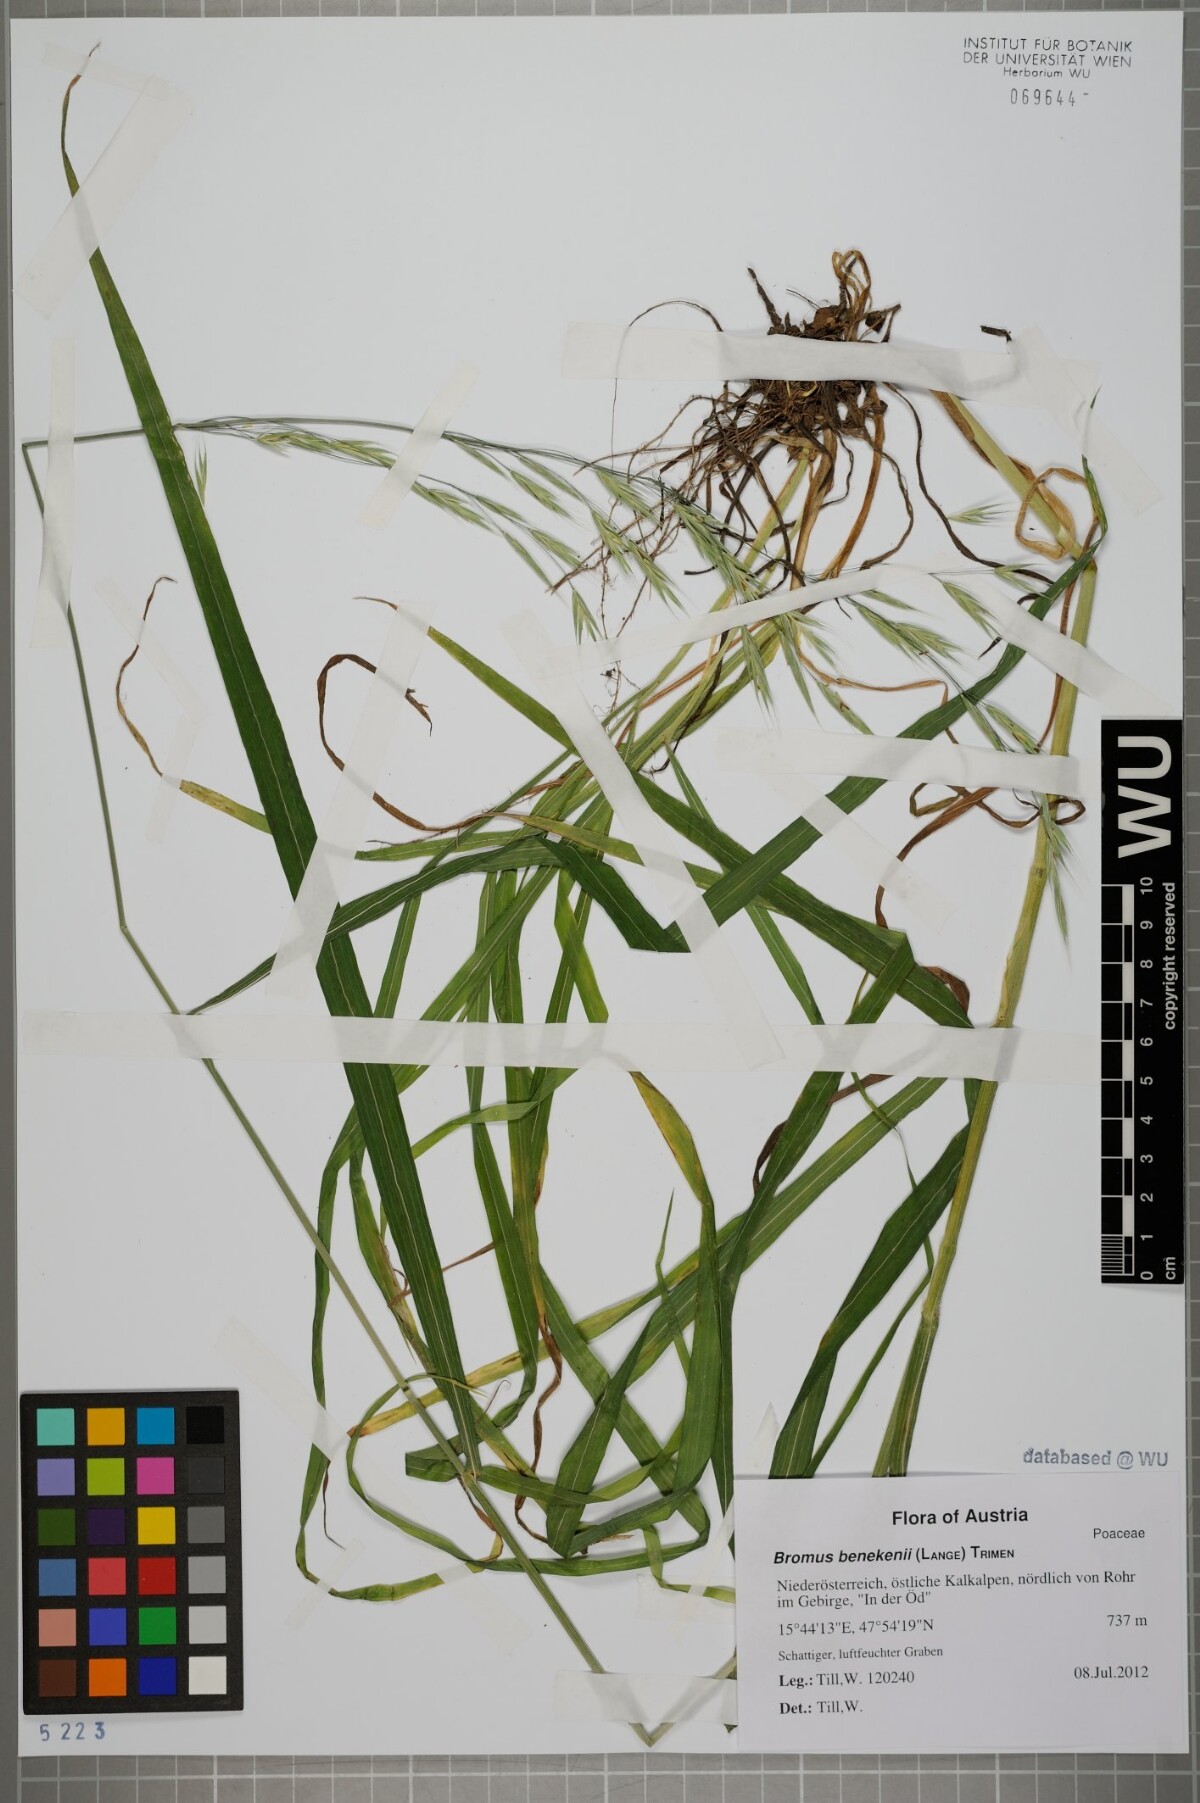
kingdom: Plantae
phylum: Tracheophyta
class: Liliopsida
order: Poales
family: Poaceae
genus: Bromus
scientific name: Bromus benekenii
